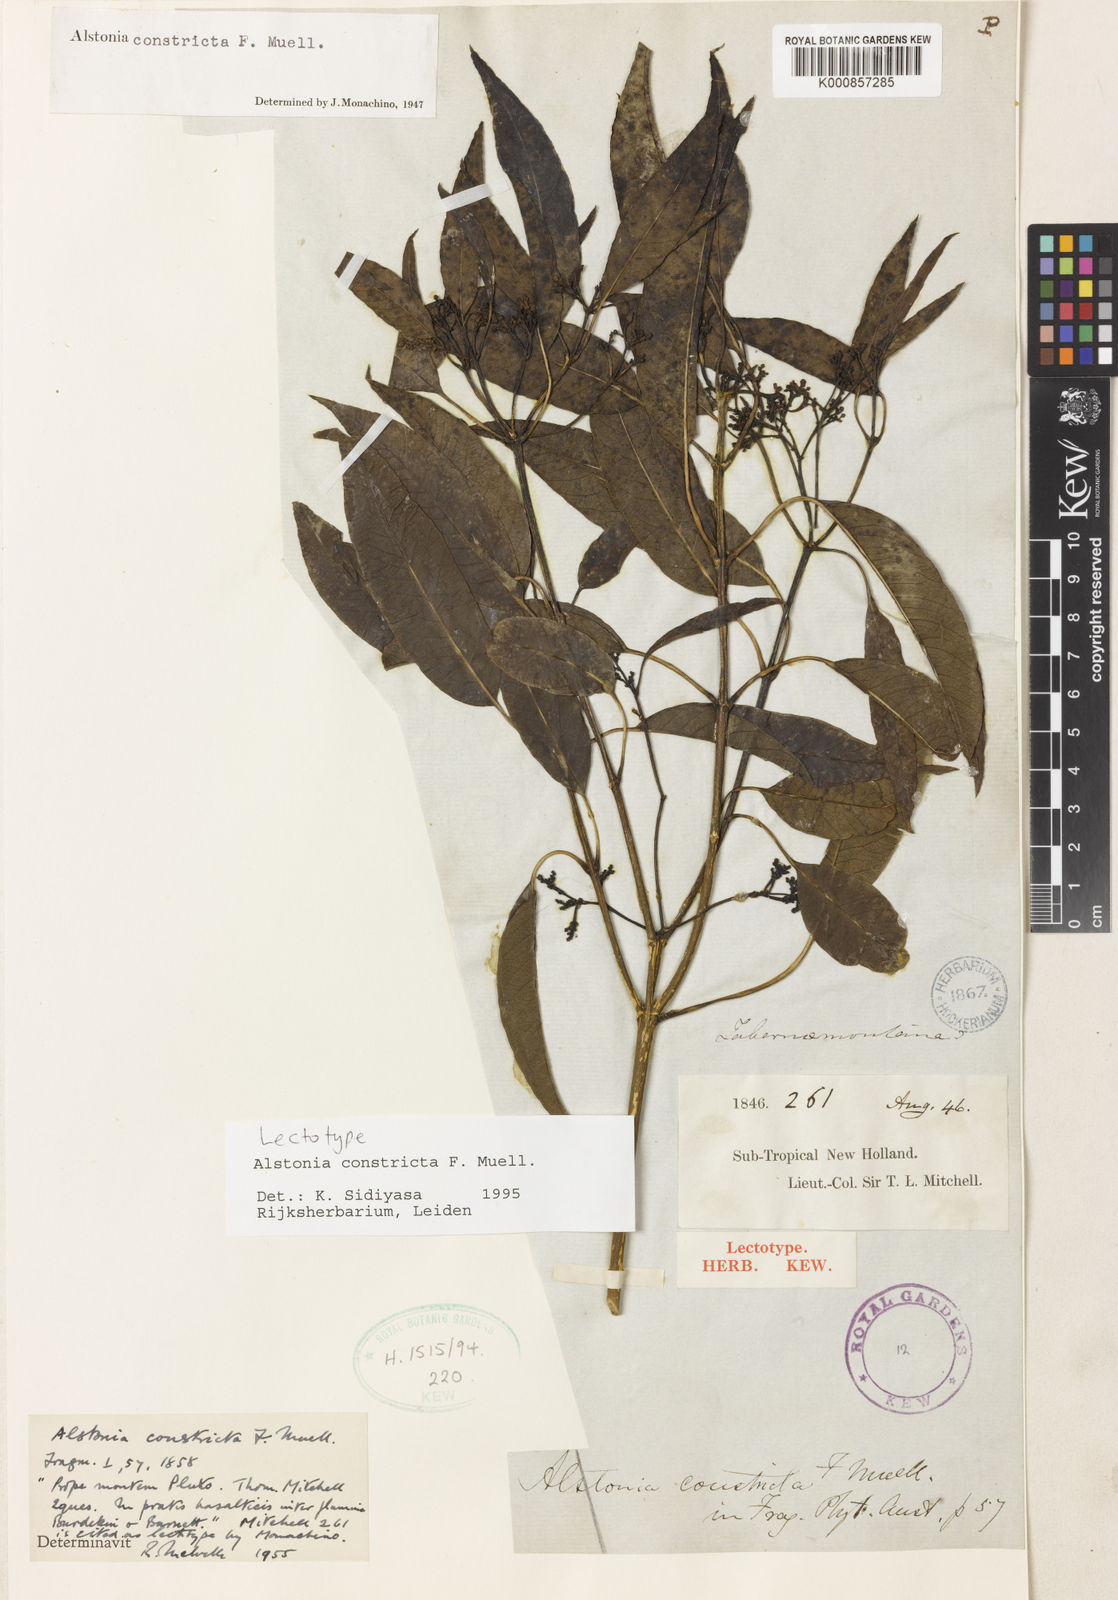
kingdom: Plantae
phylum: Tracheophyta
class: Magnoliopsida
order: Gentianales
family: Apocynaceae
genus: Alstonia
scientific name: Alstonia mollis
